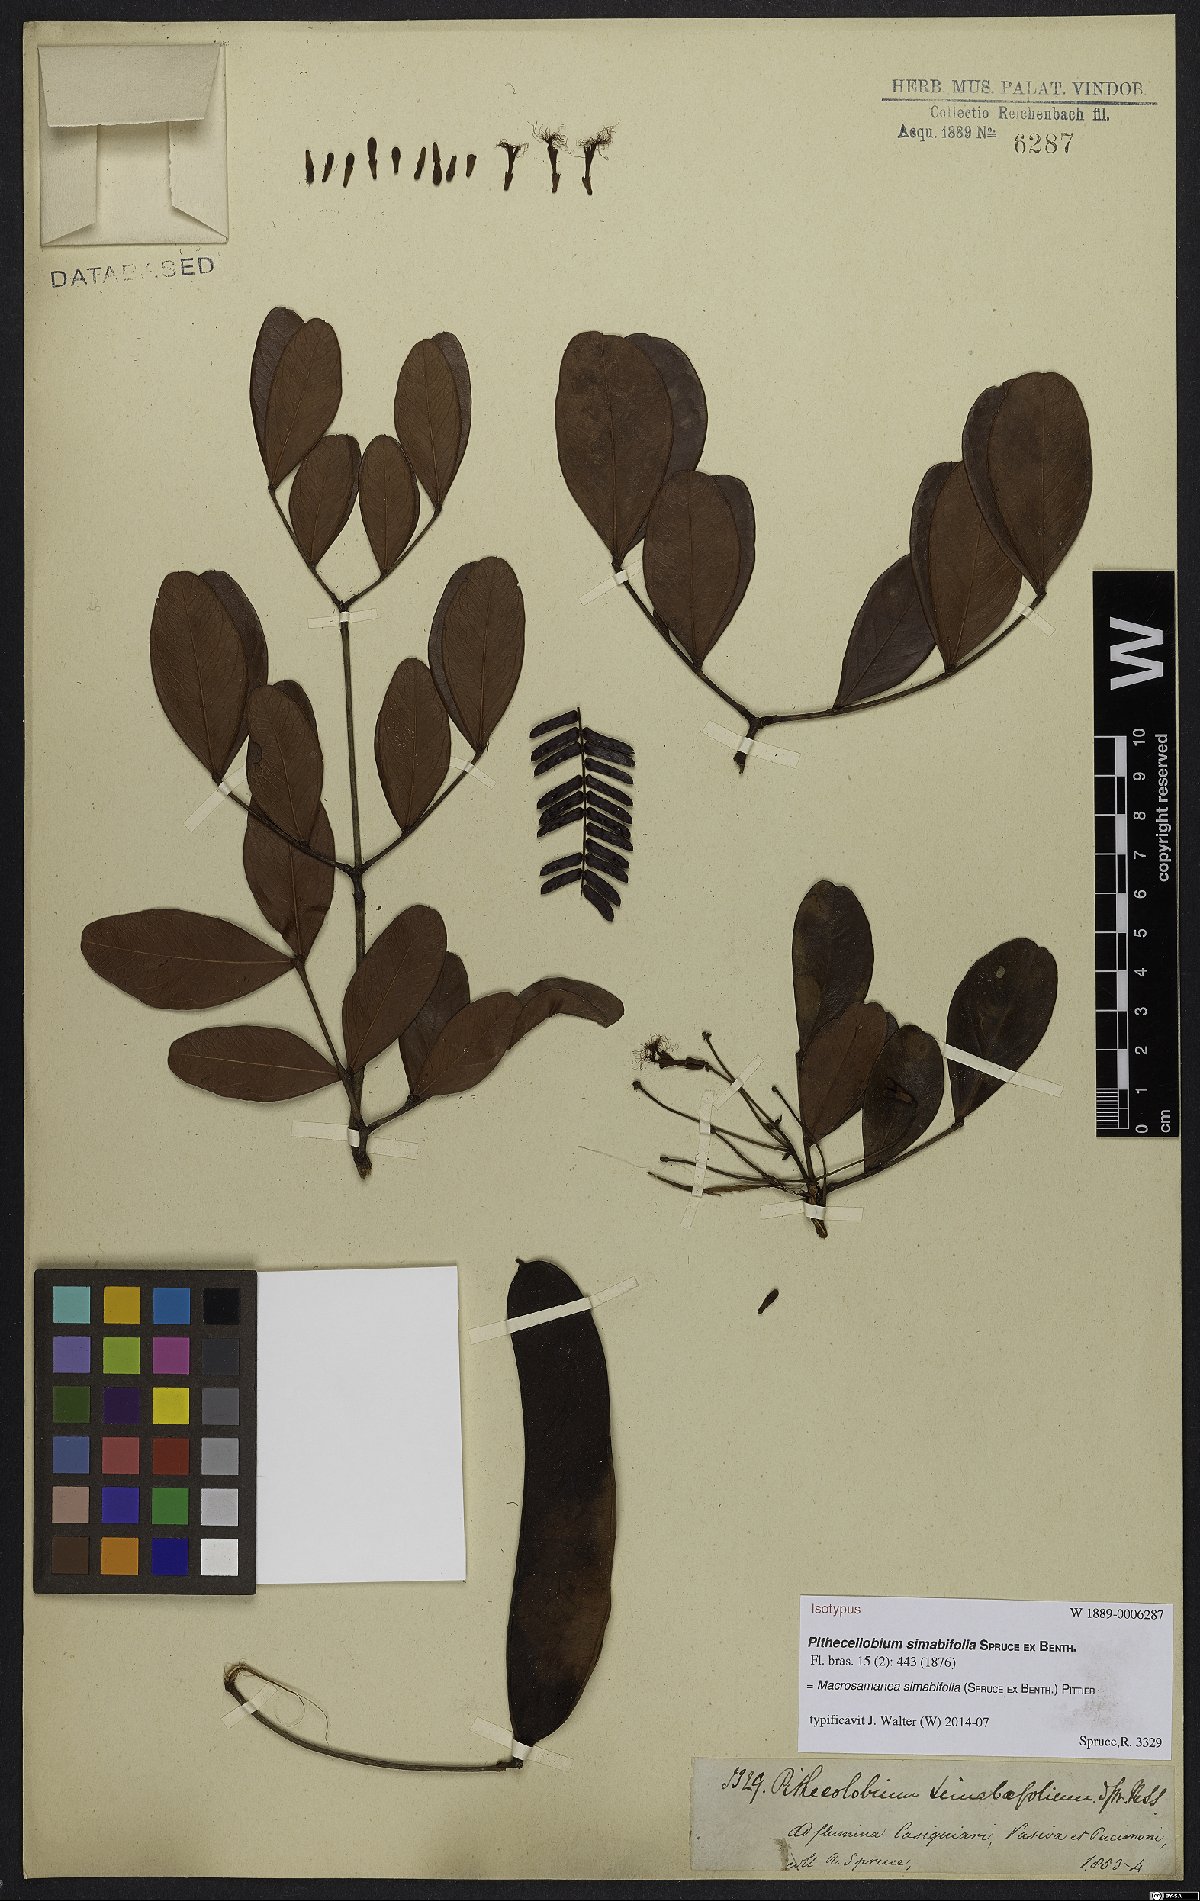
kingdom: Plantae
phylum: Tracheophyta
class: Magnoliopsida
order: Fabales
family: Fabaceae
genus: Macrosamanea
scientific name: Macrosamanea simabifolia
